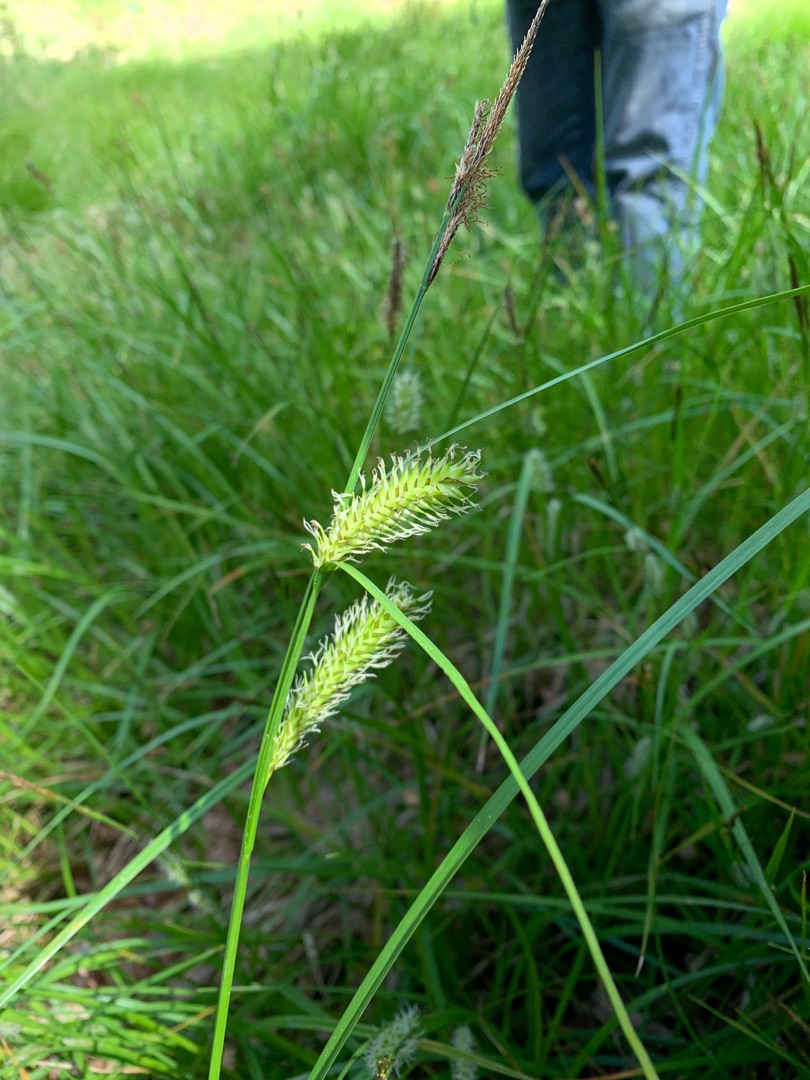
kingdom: Plantae
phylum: Tracheophyta
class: Liliopsida
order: Poales
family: Cyperaceae
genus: Carex
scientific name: Carex vesicaria
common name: Blære-star
